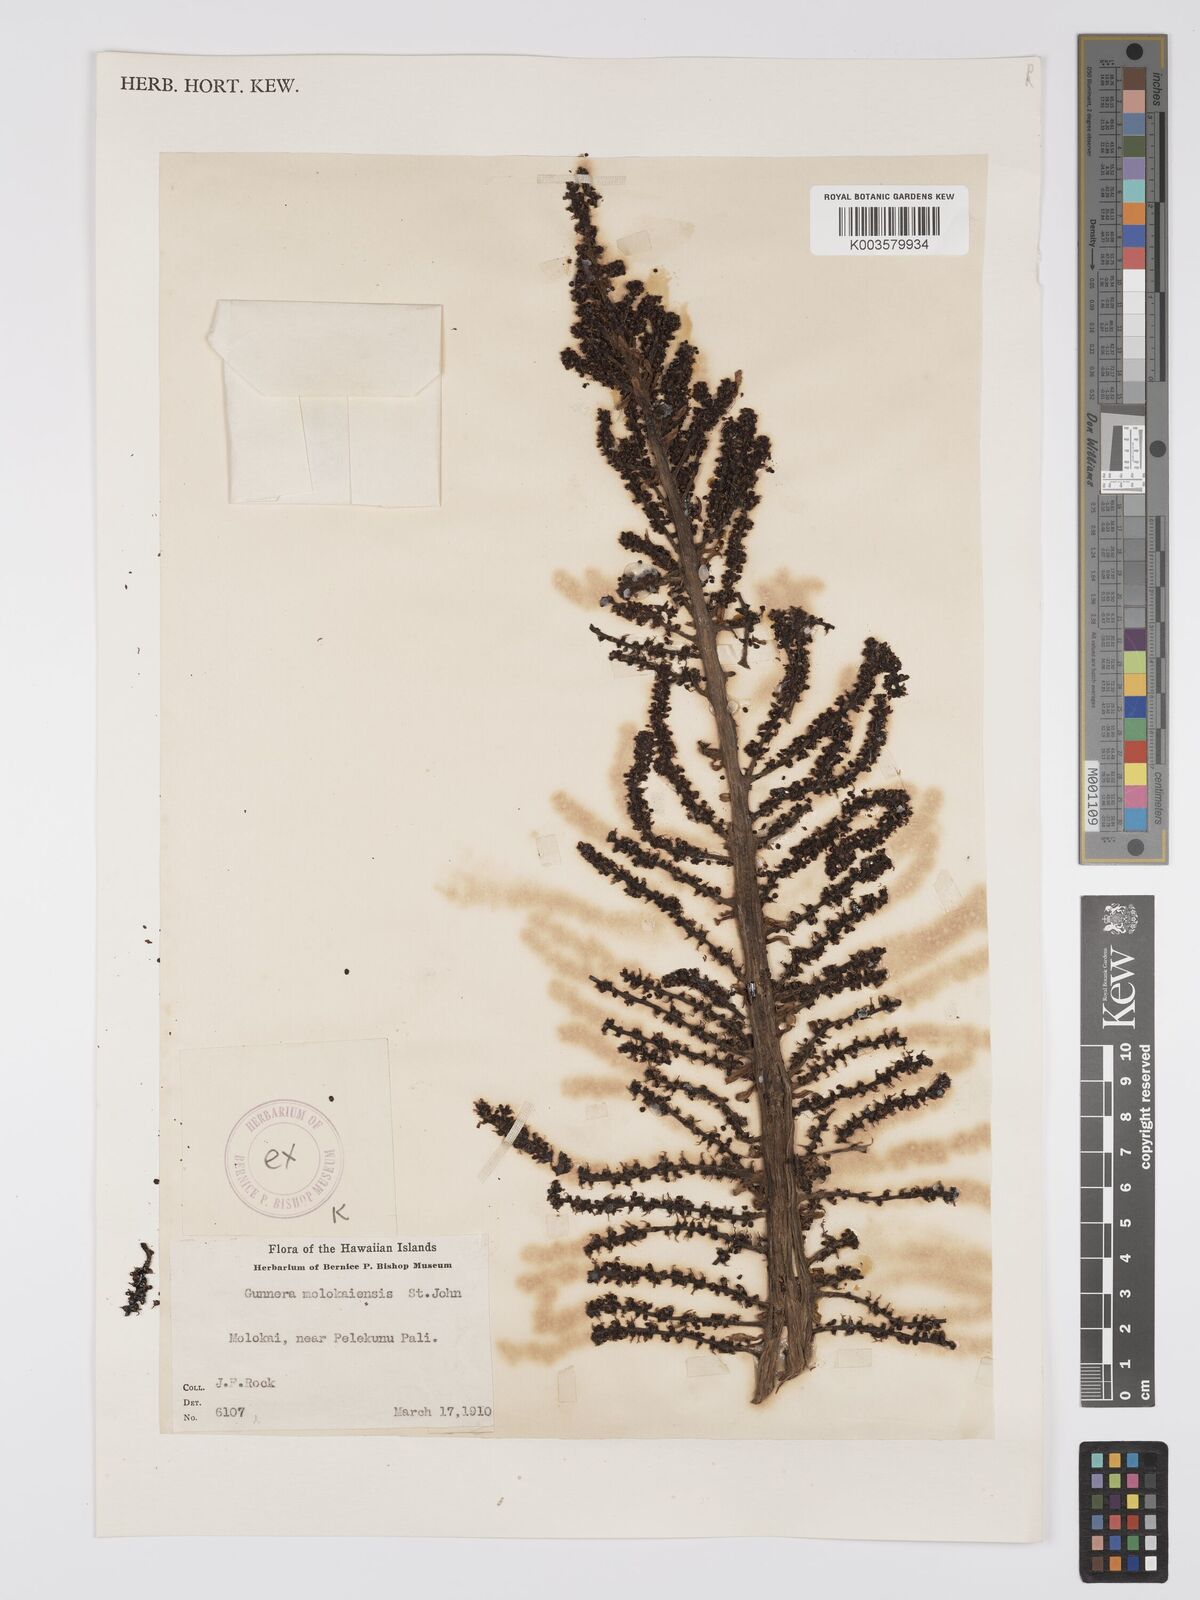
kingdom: Plantae
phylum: Tracheophyta
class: Magnoliopsida
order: Gunnerales
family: Gunneraceae
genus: Gunnera
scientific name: Gunnera petaloidea
